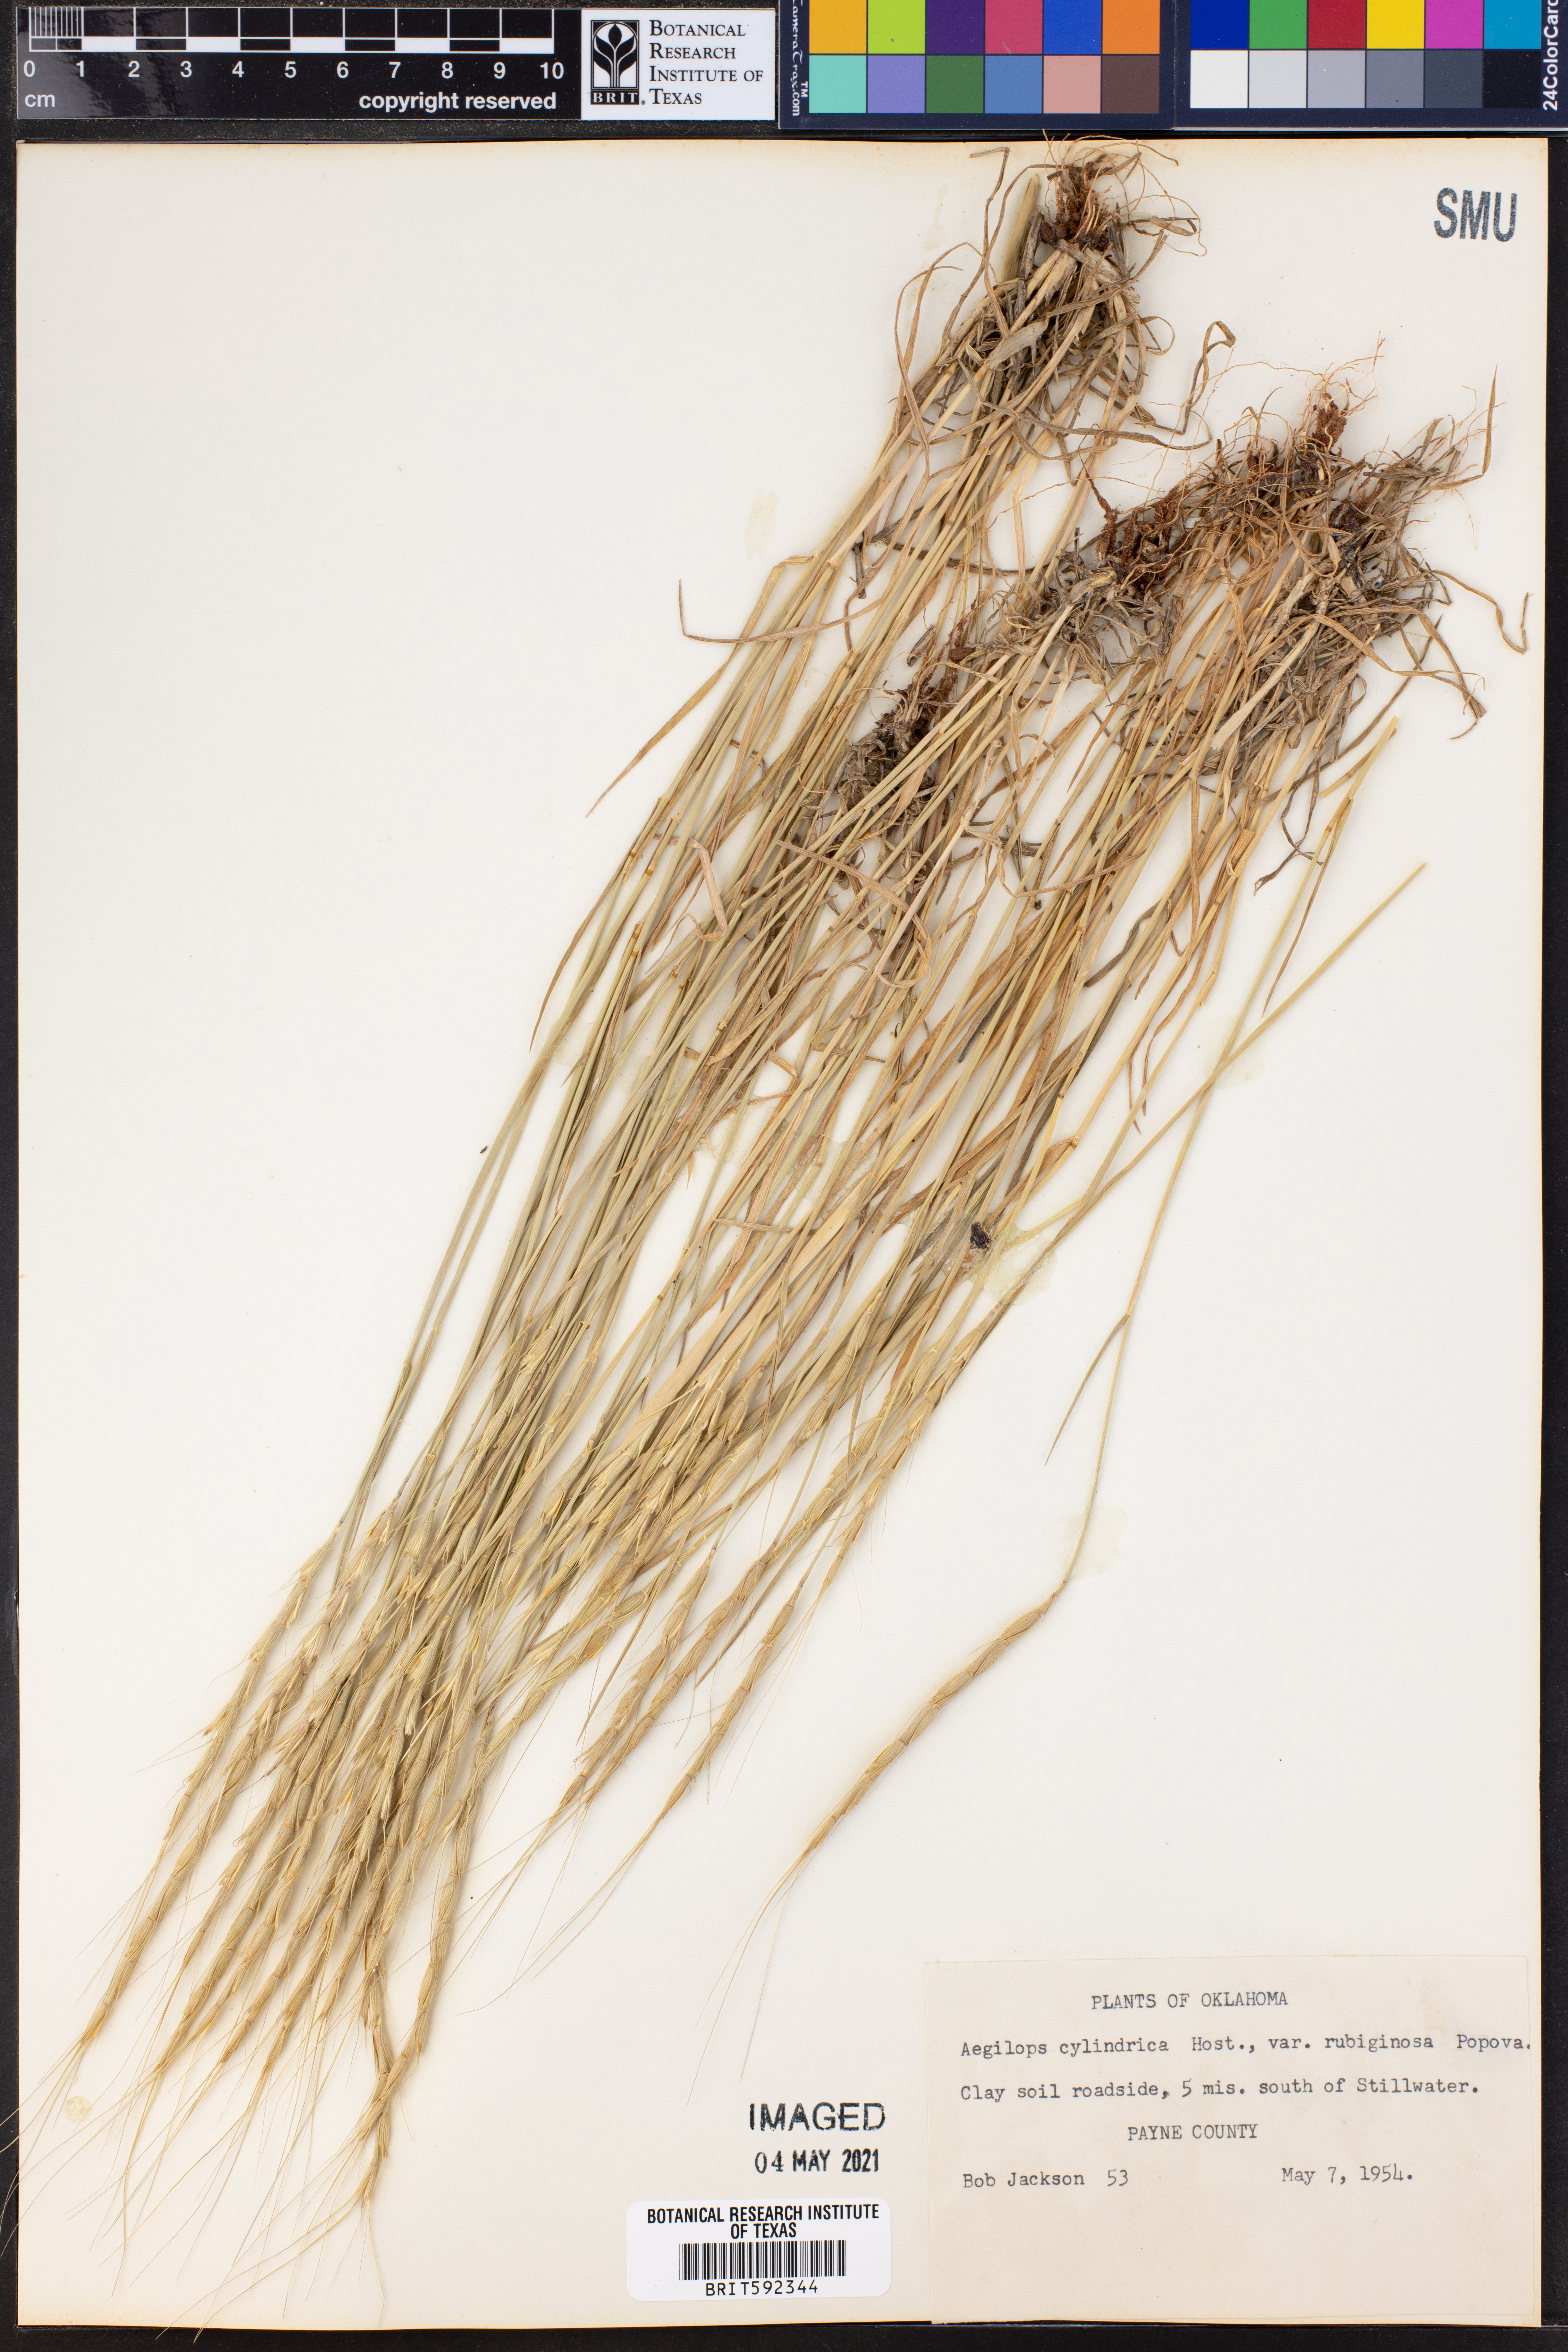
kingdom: Plantae
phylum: Tracheophyta
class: Liliopsida
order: Poales
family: Poaceae
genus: Aegilops
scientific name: Aegilops cylindrica
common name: Jointed goatgrass
